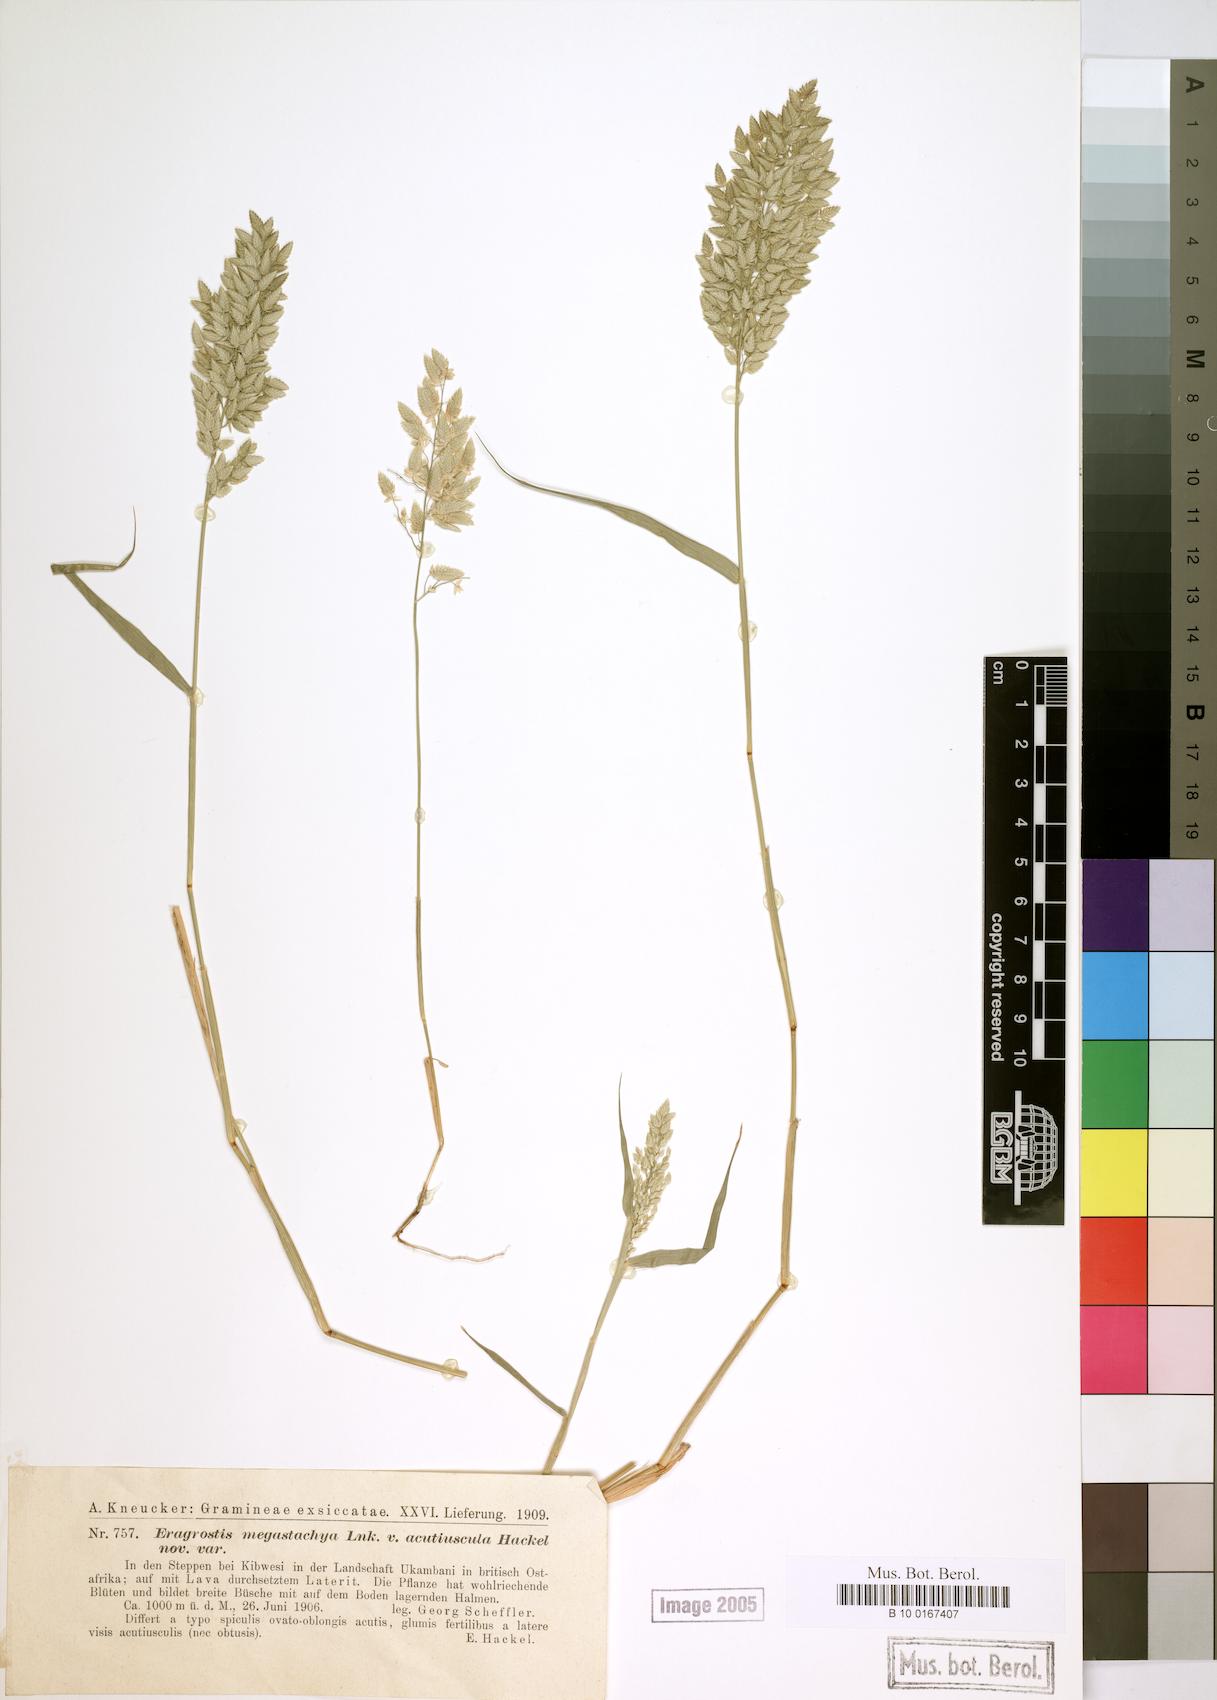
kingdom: Plantae
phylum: Tracheophyta
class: Liliopsida
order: Poales
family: Poaceae
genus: Eragrostis
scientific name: Eragrostis cilianensis
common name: Stinkgrass
